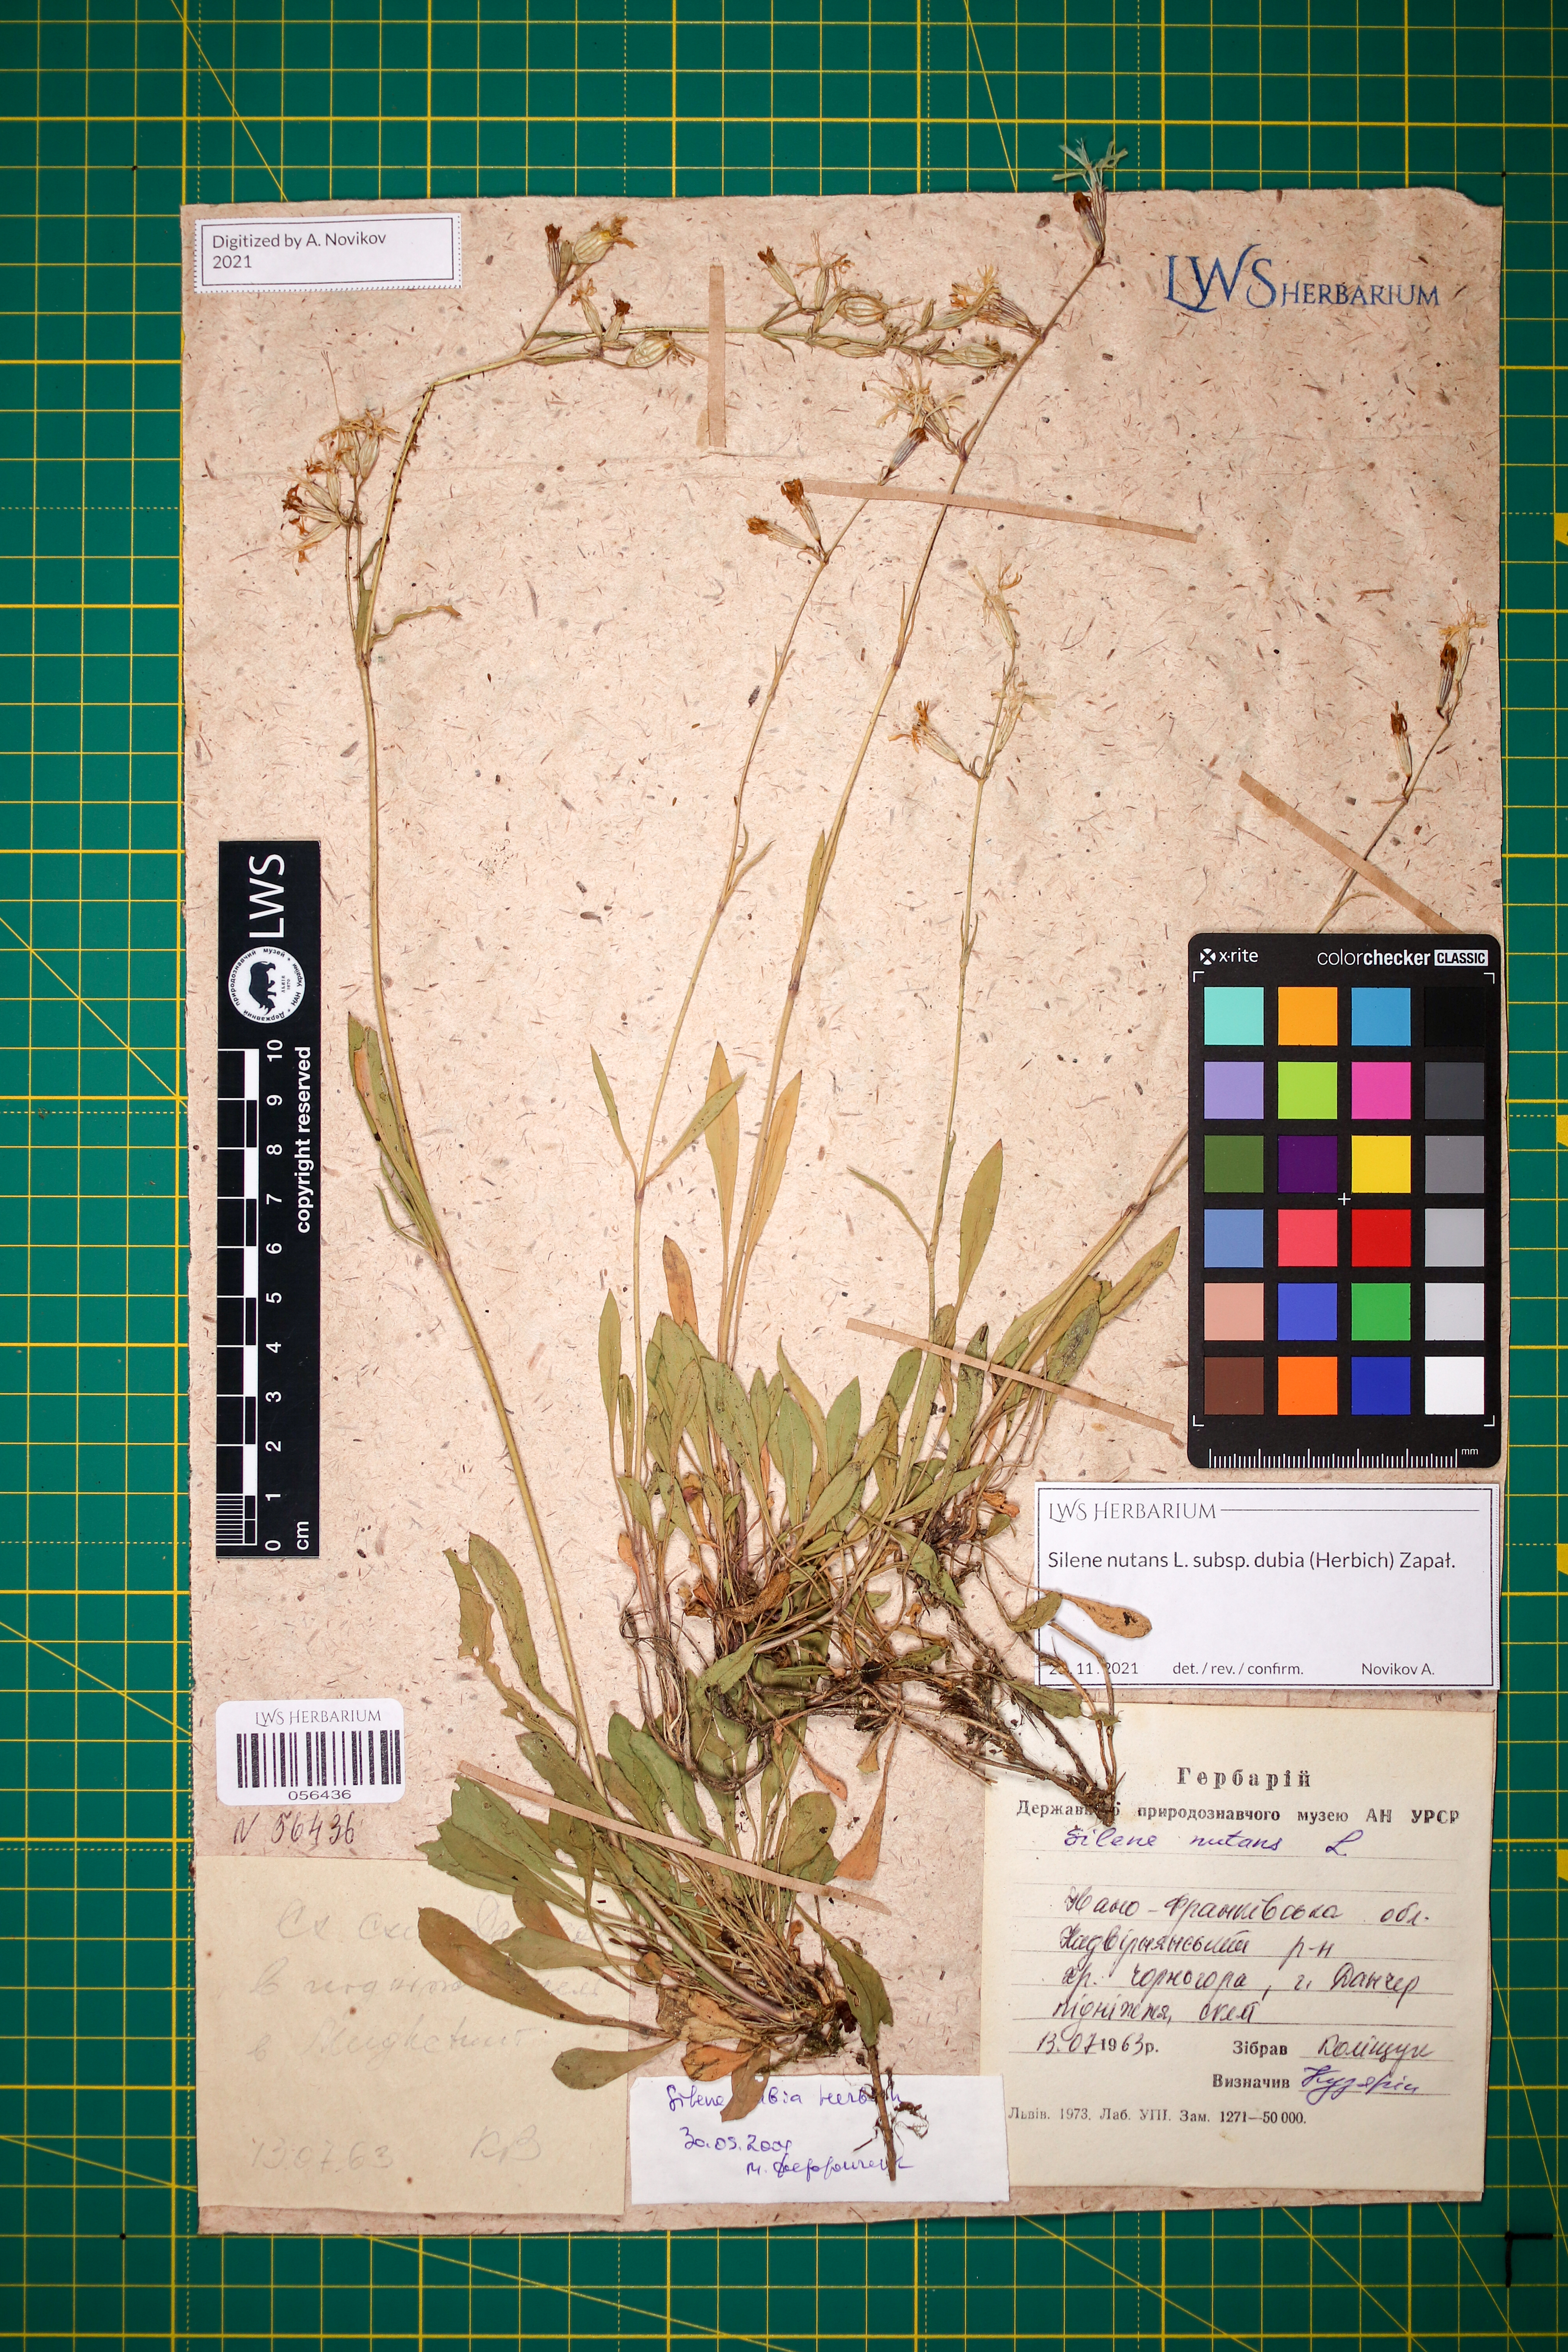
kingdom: Plantae
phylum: Tracheophyta
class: Magnoliopsida
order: Caryophyllales
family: Caryophyllaceae
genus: Silene
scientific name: Silene nutans
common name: Nottingham catchfly
